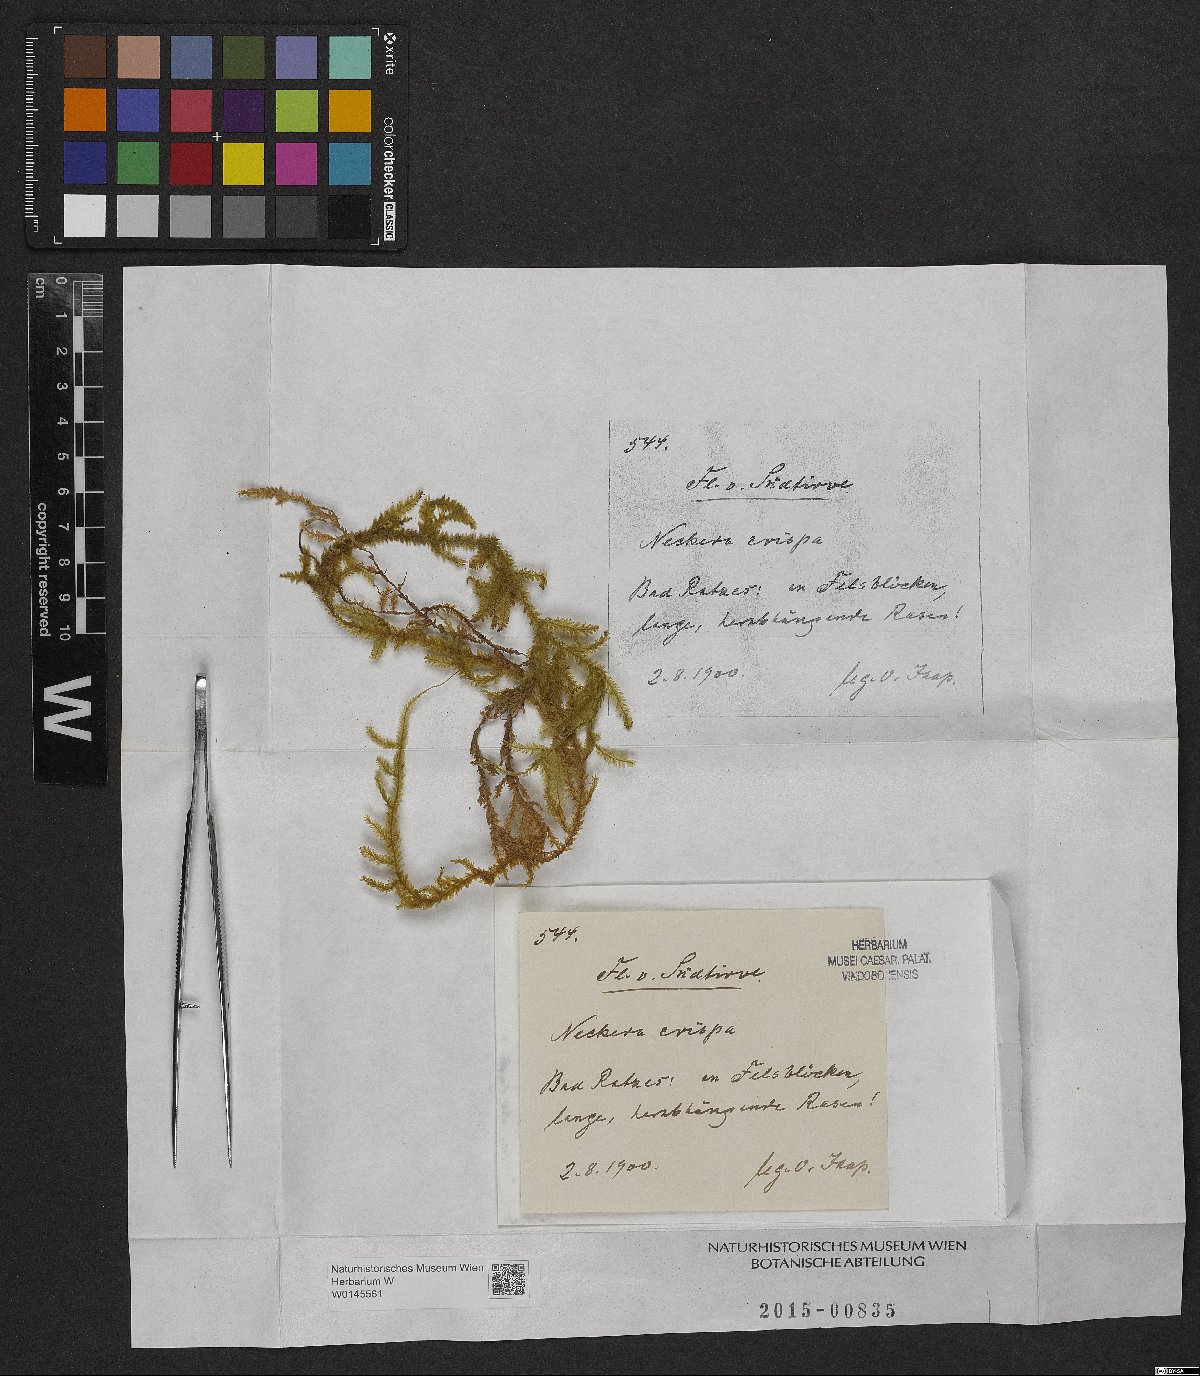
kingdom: Plantae
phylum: Bryophyta
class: Bryopsida
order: Hypnales
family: Neckeraceae
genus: Exsertotheca
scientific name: Exsertotheca crispa
